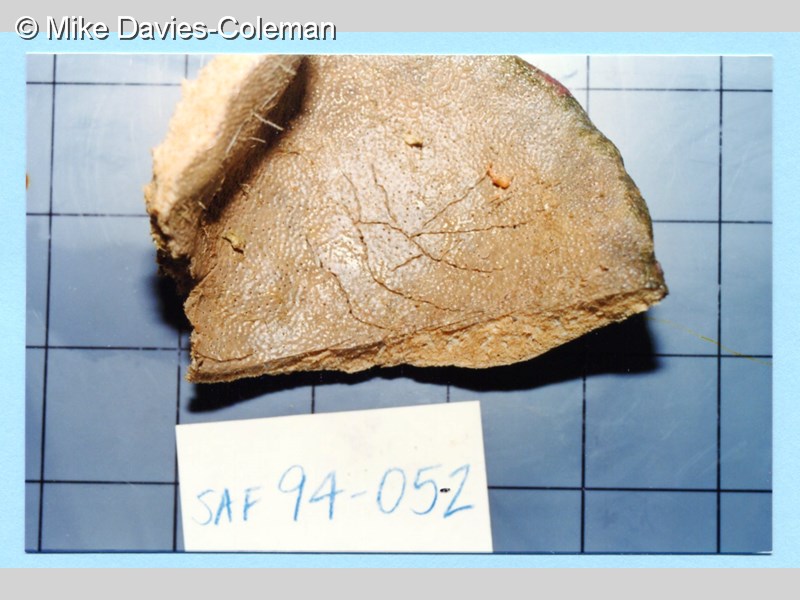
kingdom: Animalia
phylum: Porifera
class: Demospongiae
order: Dictyoceratida
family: Irciniidae
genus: Psammocinia
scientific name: Psammocinia arenosa
